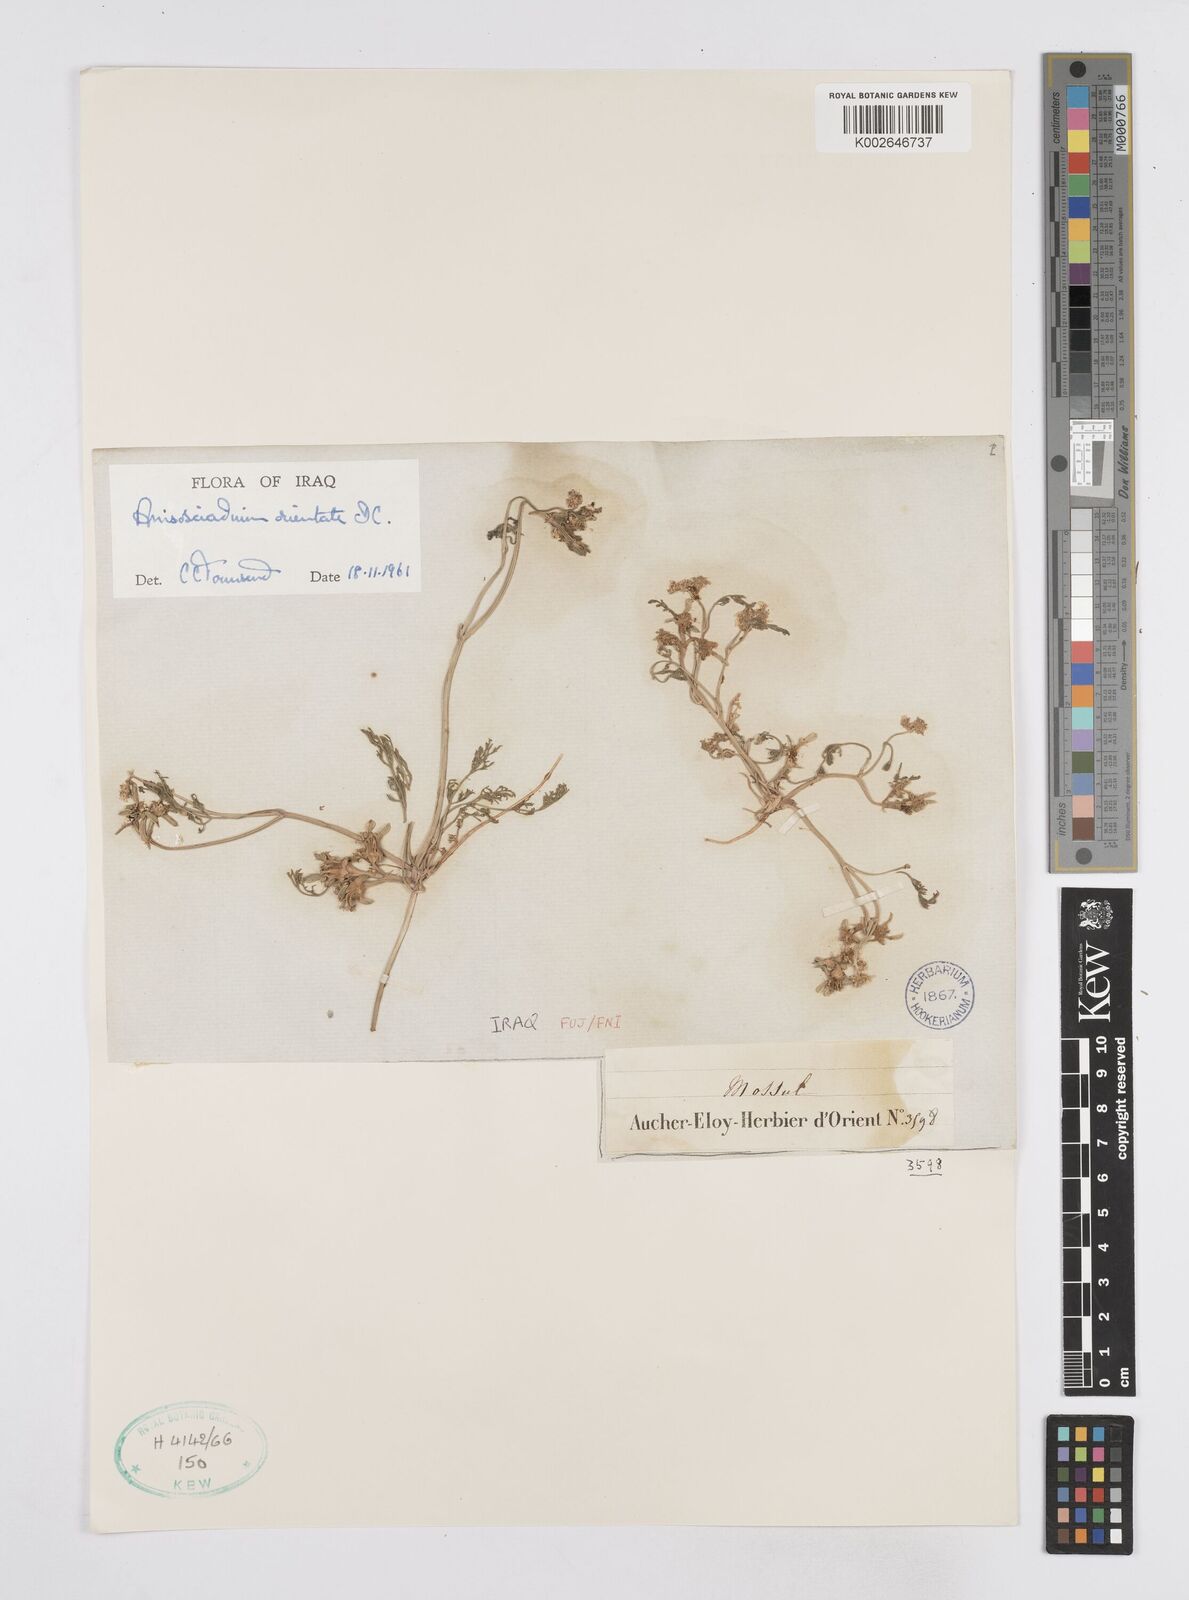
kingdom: Plantae
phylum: Tracheophyta
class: Magnoliopsida
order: Apiales
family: Apiaceae
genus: Anisosciadium
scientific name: Anisosciadium orientale
